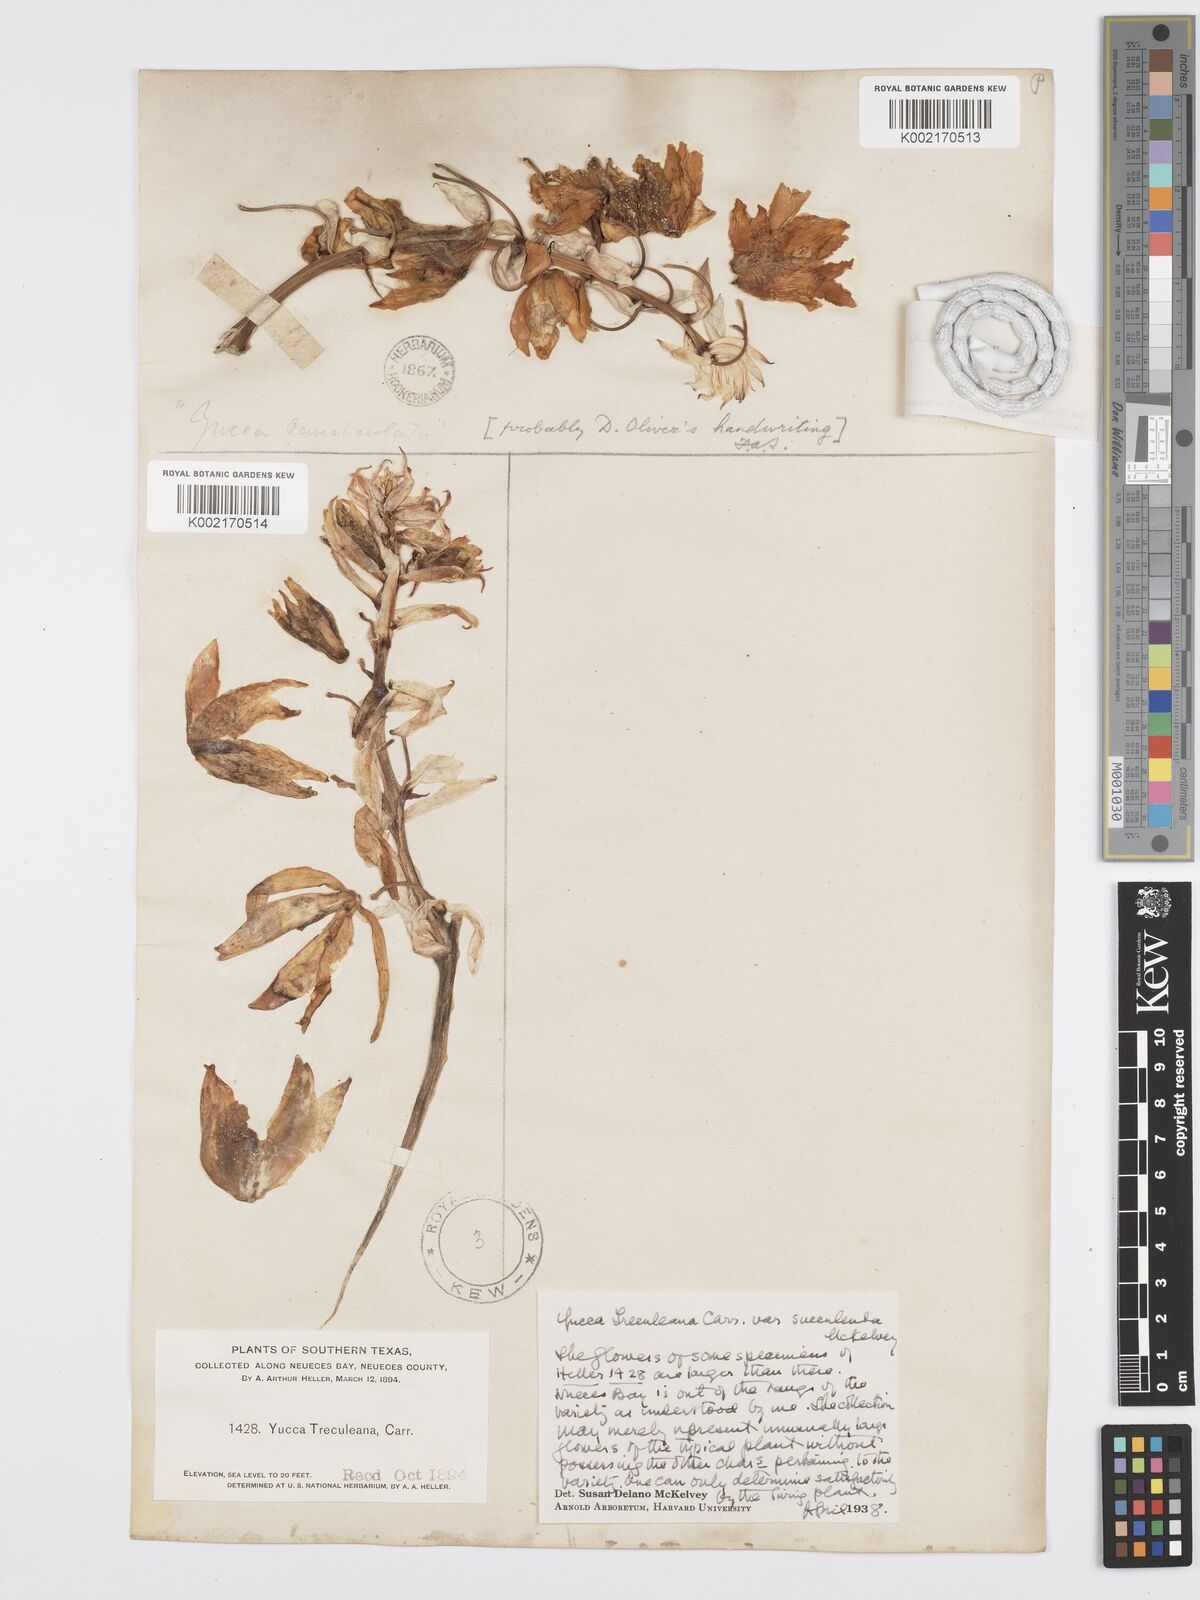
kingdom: Plantae
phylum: Tracheophyta
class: Liliopsida
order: Asparagales
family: Asparagaceae
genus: Yucca
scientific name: Yucca treculeana
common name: Spanish bayonet
